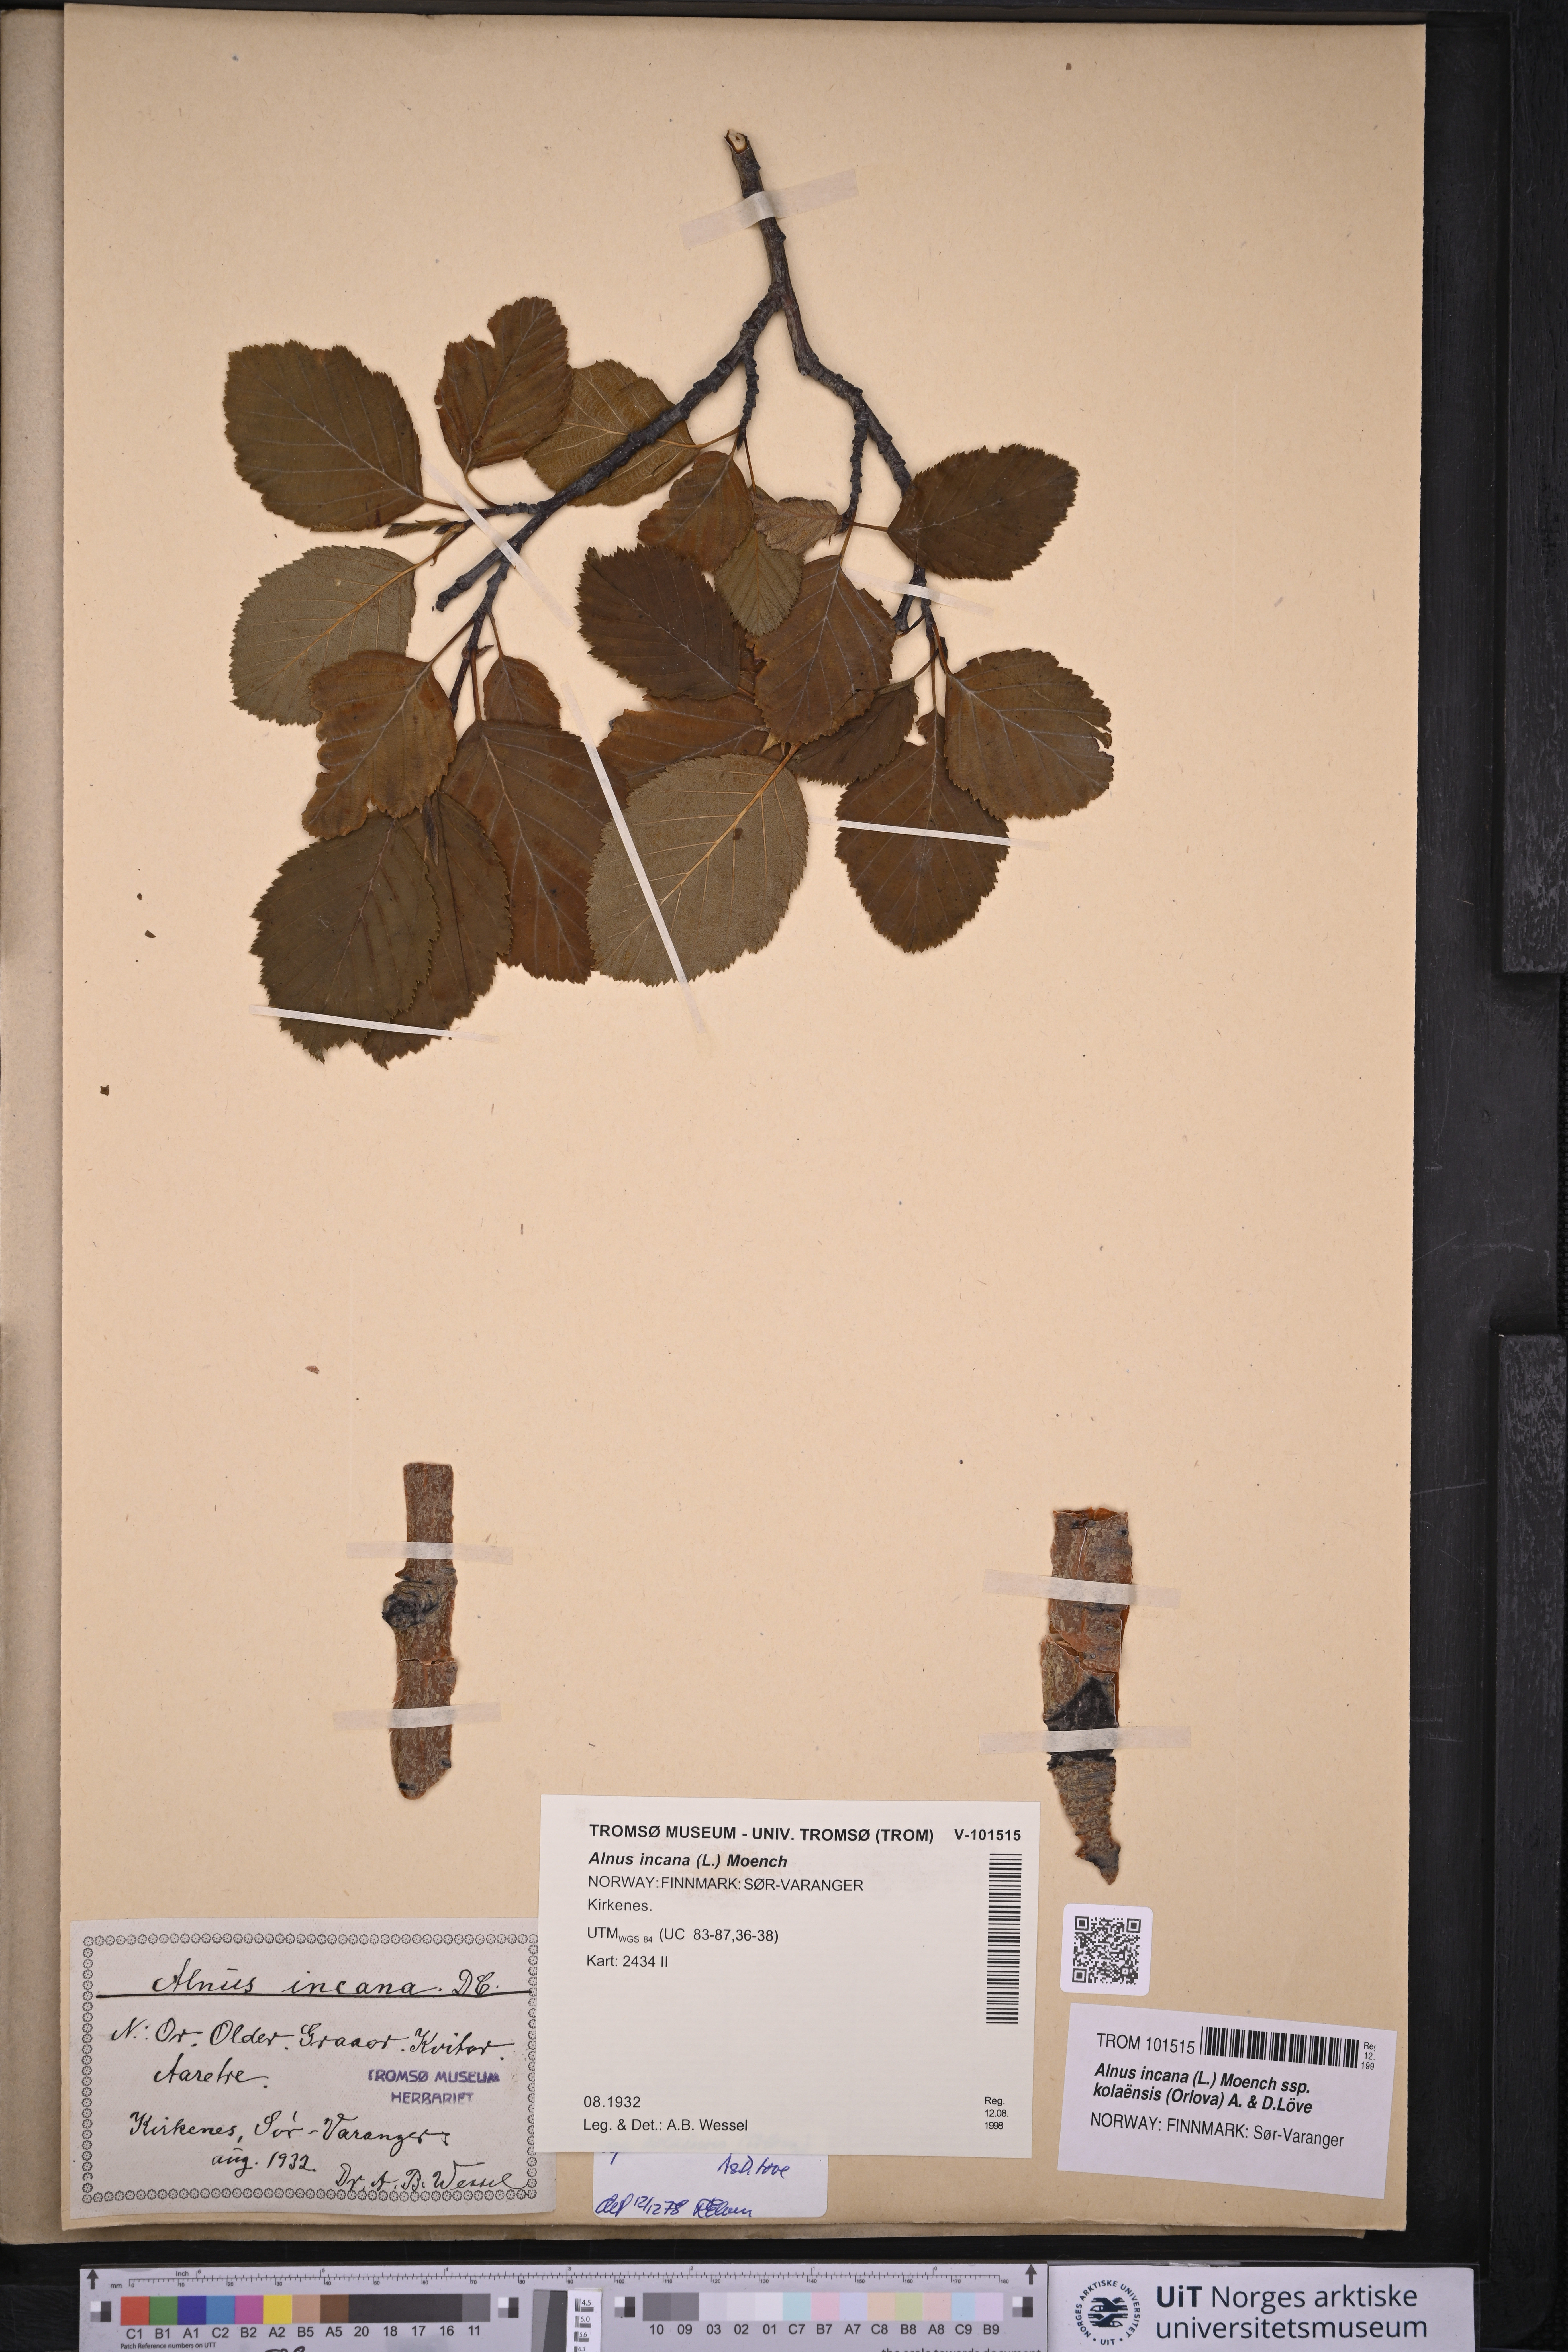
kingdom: Plantae
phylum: Tracheophyta
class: Magnoliopsida
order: Fagales
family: Betulaceae
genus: Alnus
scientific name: Alnus incana
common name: Grey alder
